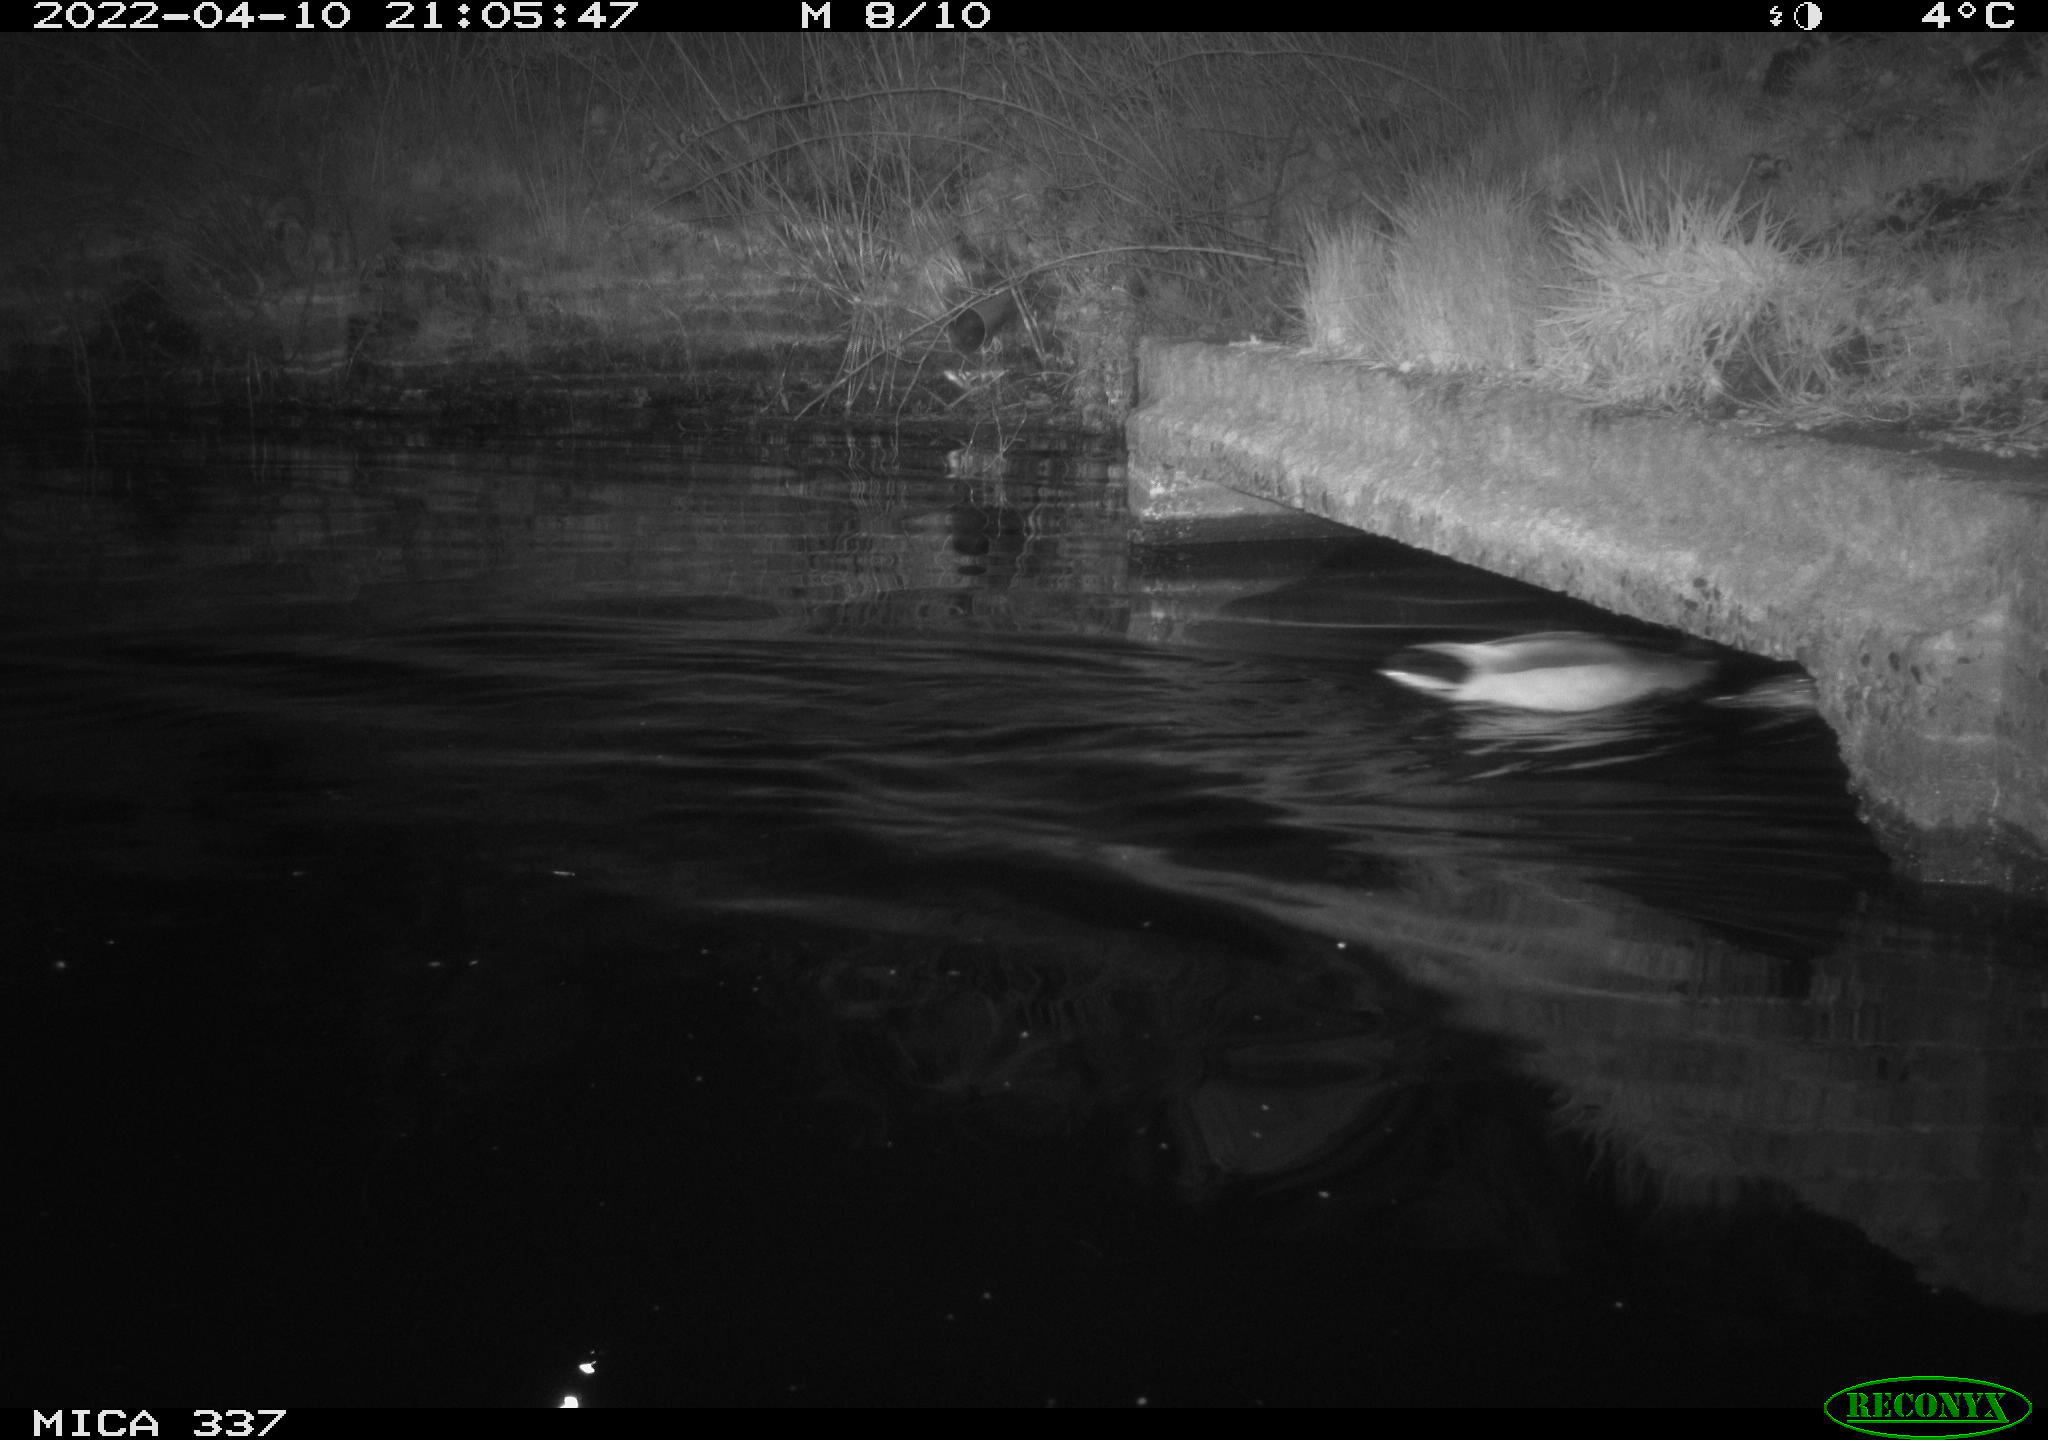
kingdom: Animalia
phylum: Chordata
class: Aves
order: Anseriformes
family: Anatidae
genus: Anas
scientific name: Anas platyrhynchos
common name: Mallard
